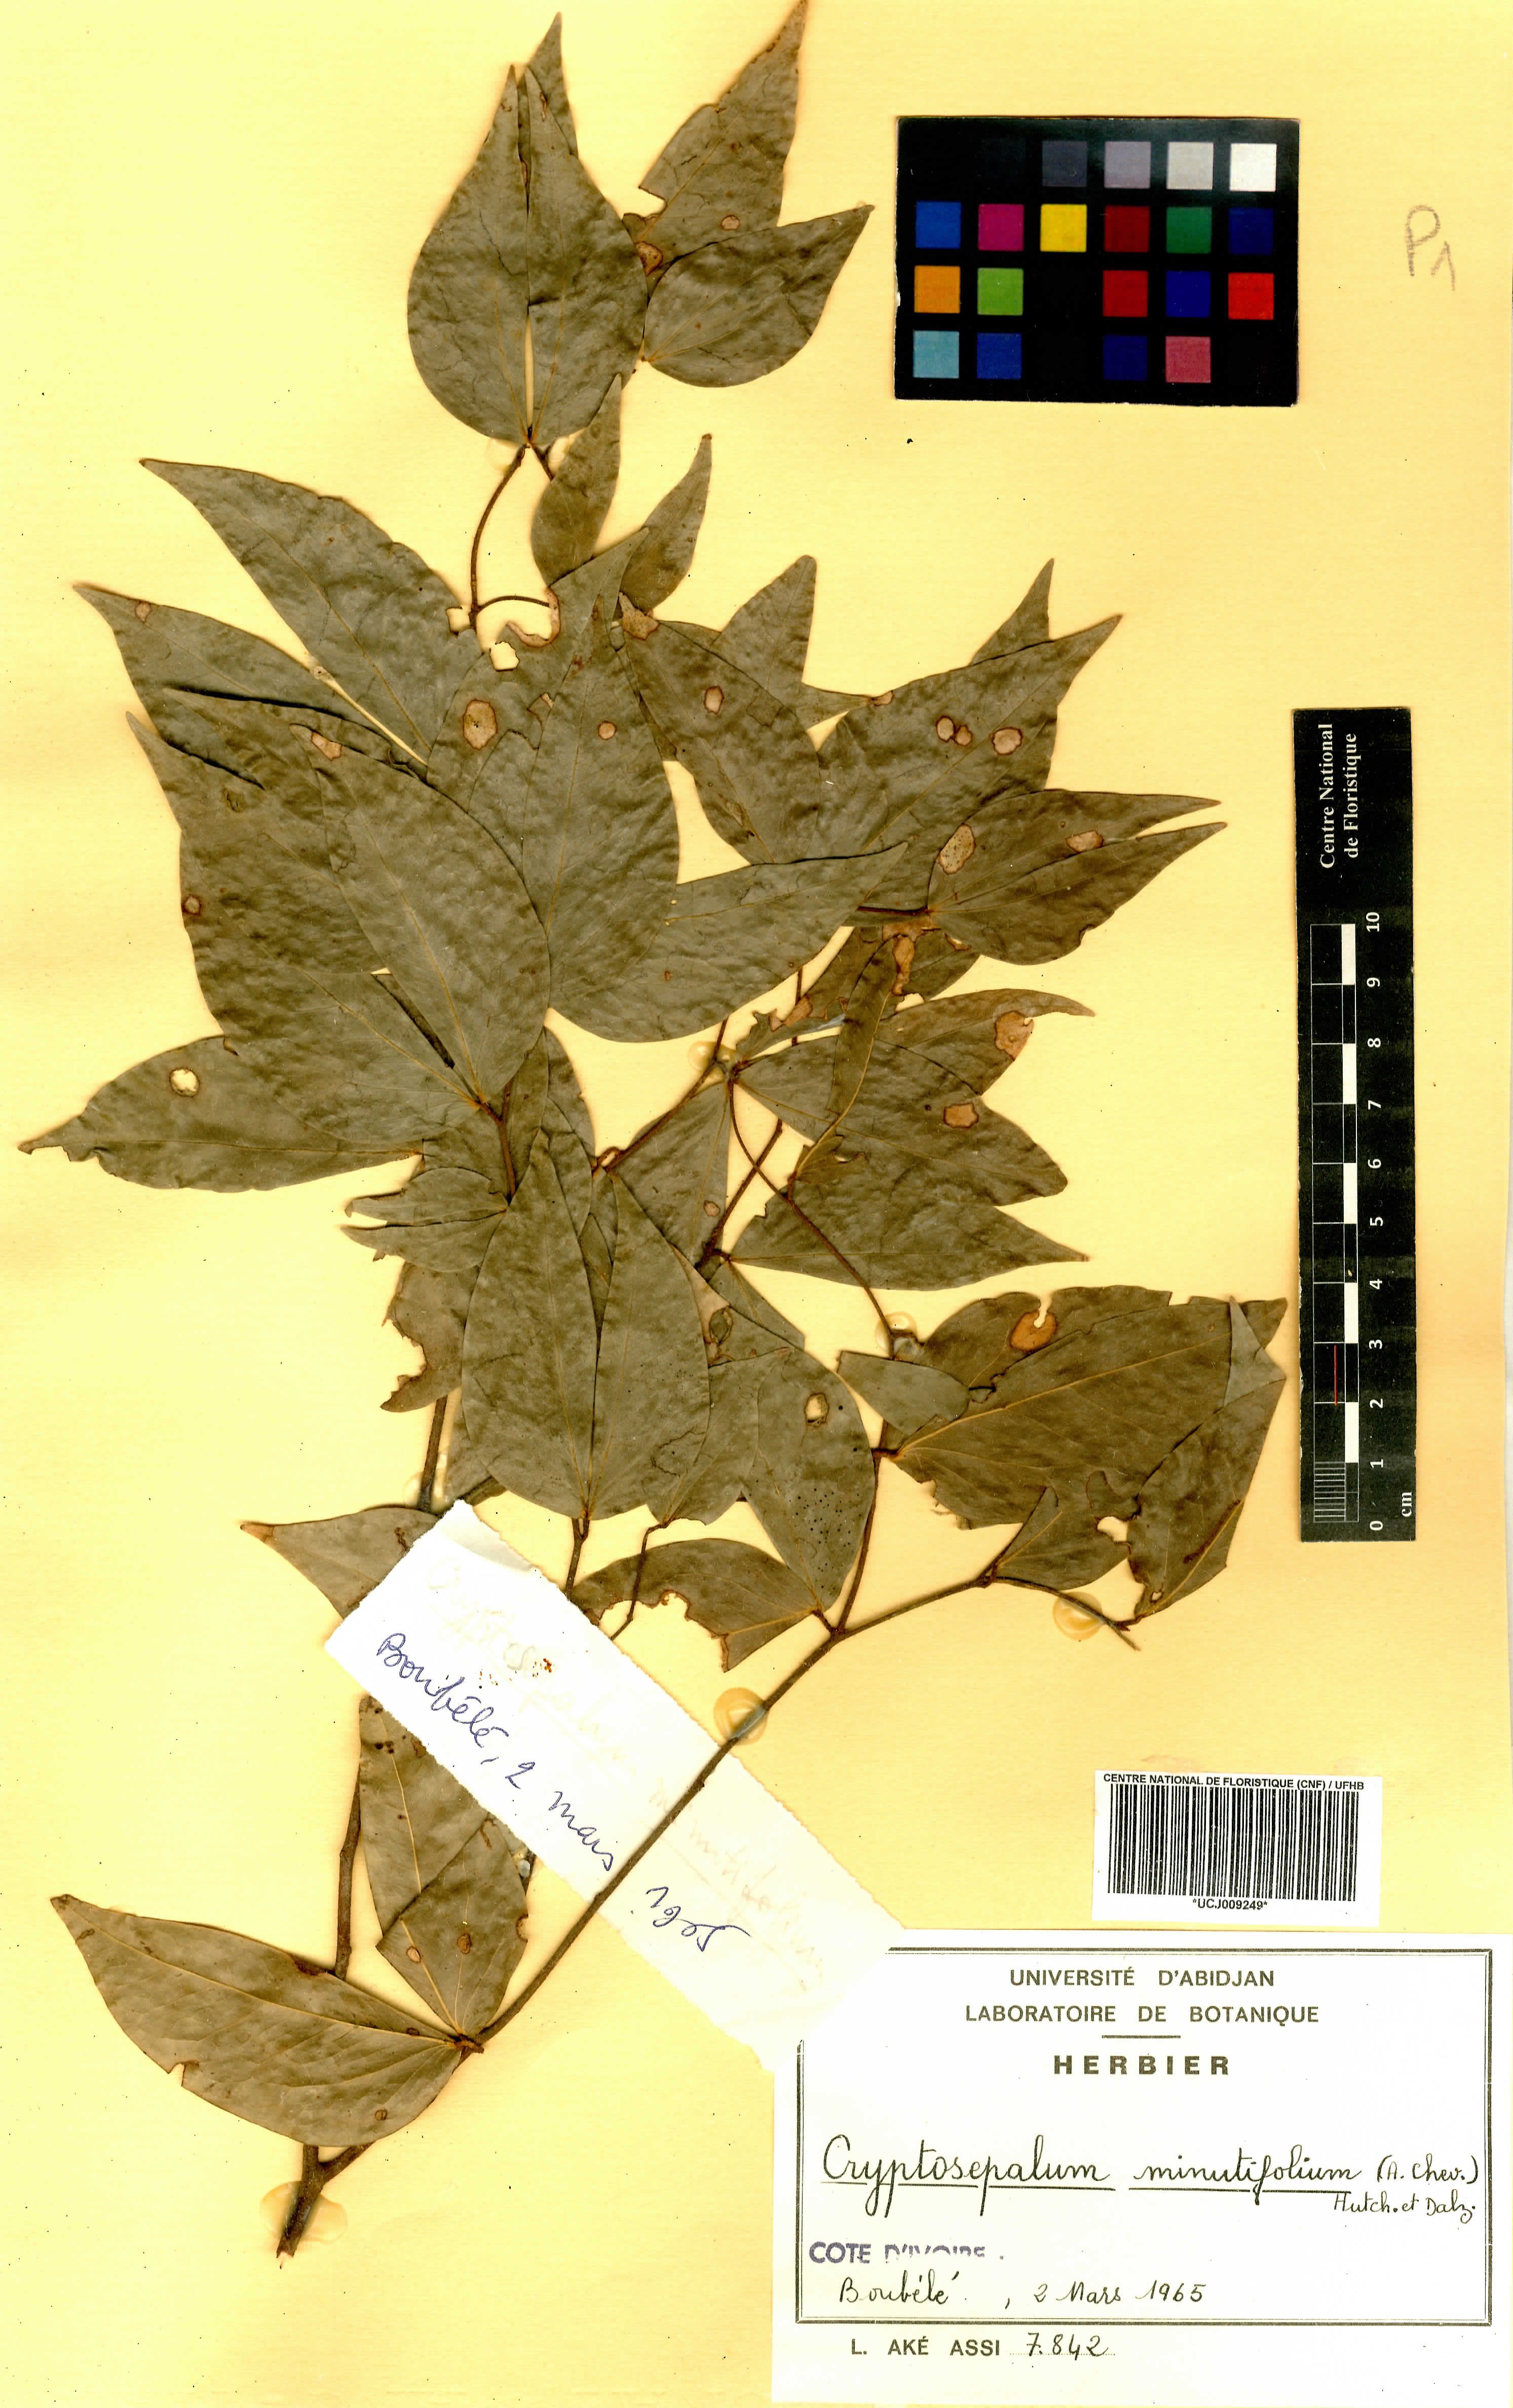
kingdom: Plantae
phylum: Tracheophyta
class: Magnoliopsida
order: Fabales
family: Fabaceae
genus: Cryptosepalum
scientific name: Cryptosepalum minutifolium
